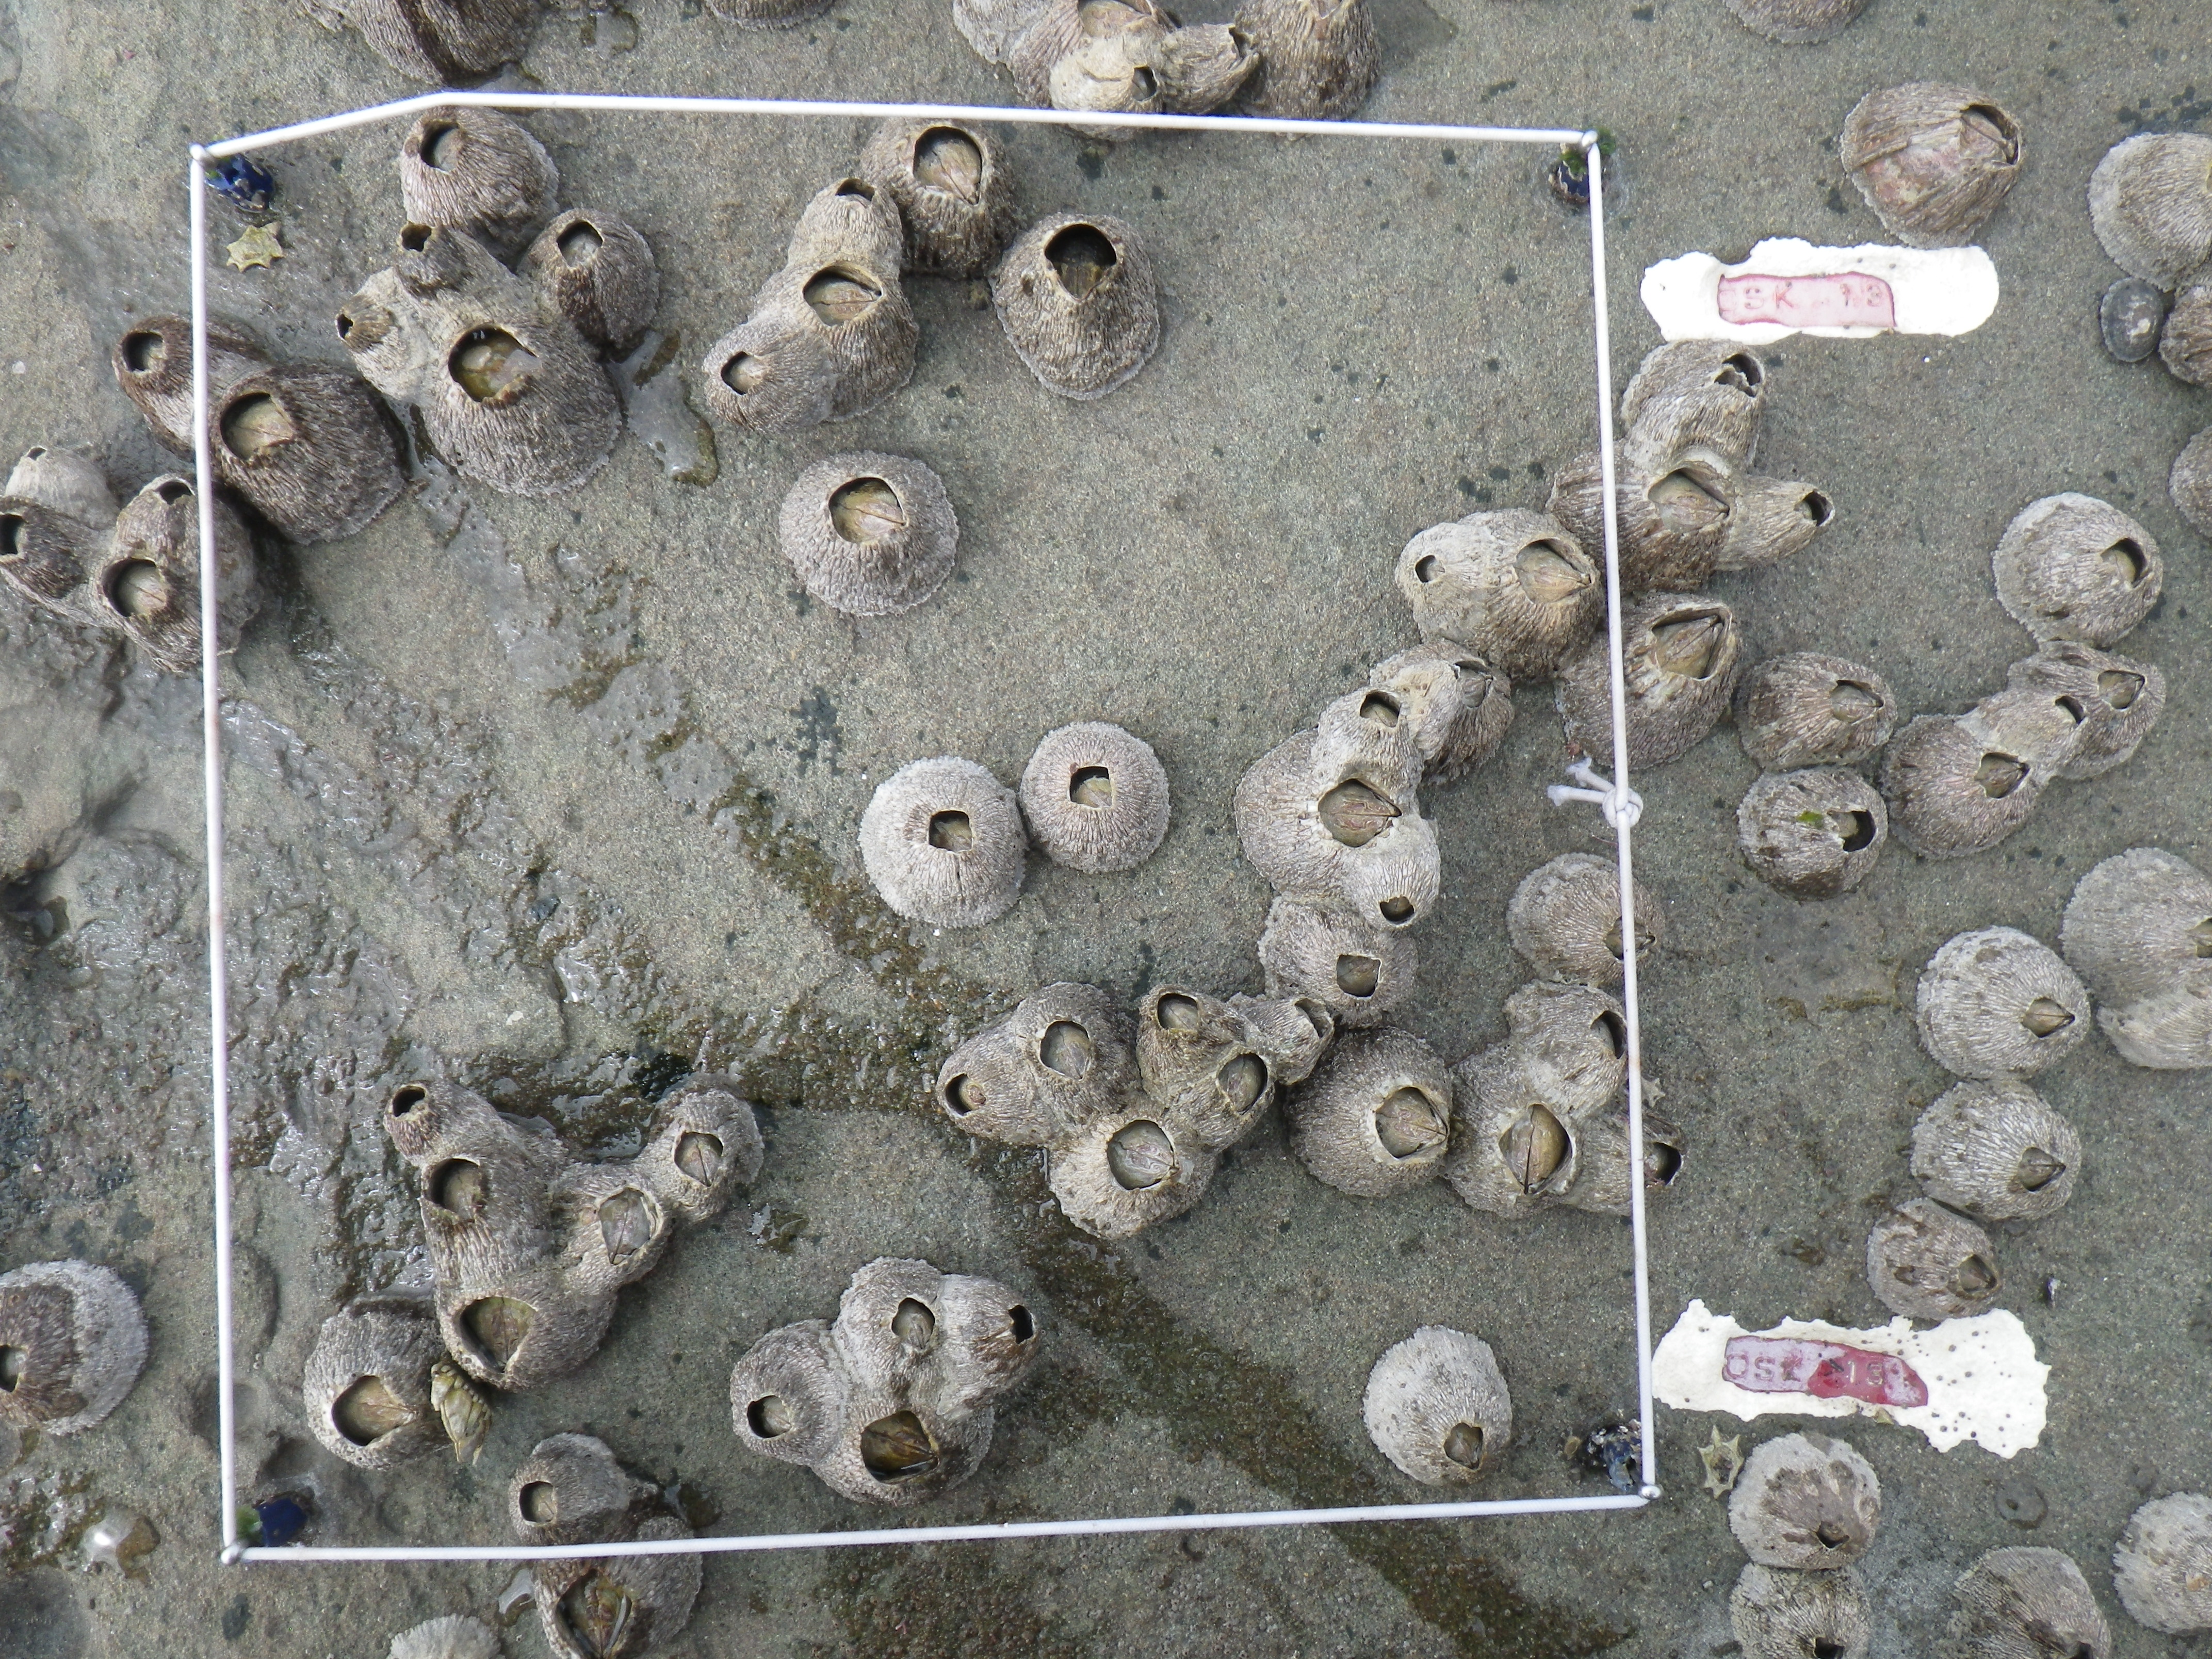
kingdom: Animalia
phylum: Arthropoda
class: Maxillopoda
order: Sessilia
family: Chthamalidae
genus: Chthamalus
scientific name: Chthamalus challengeri
